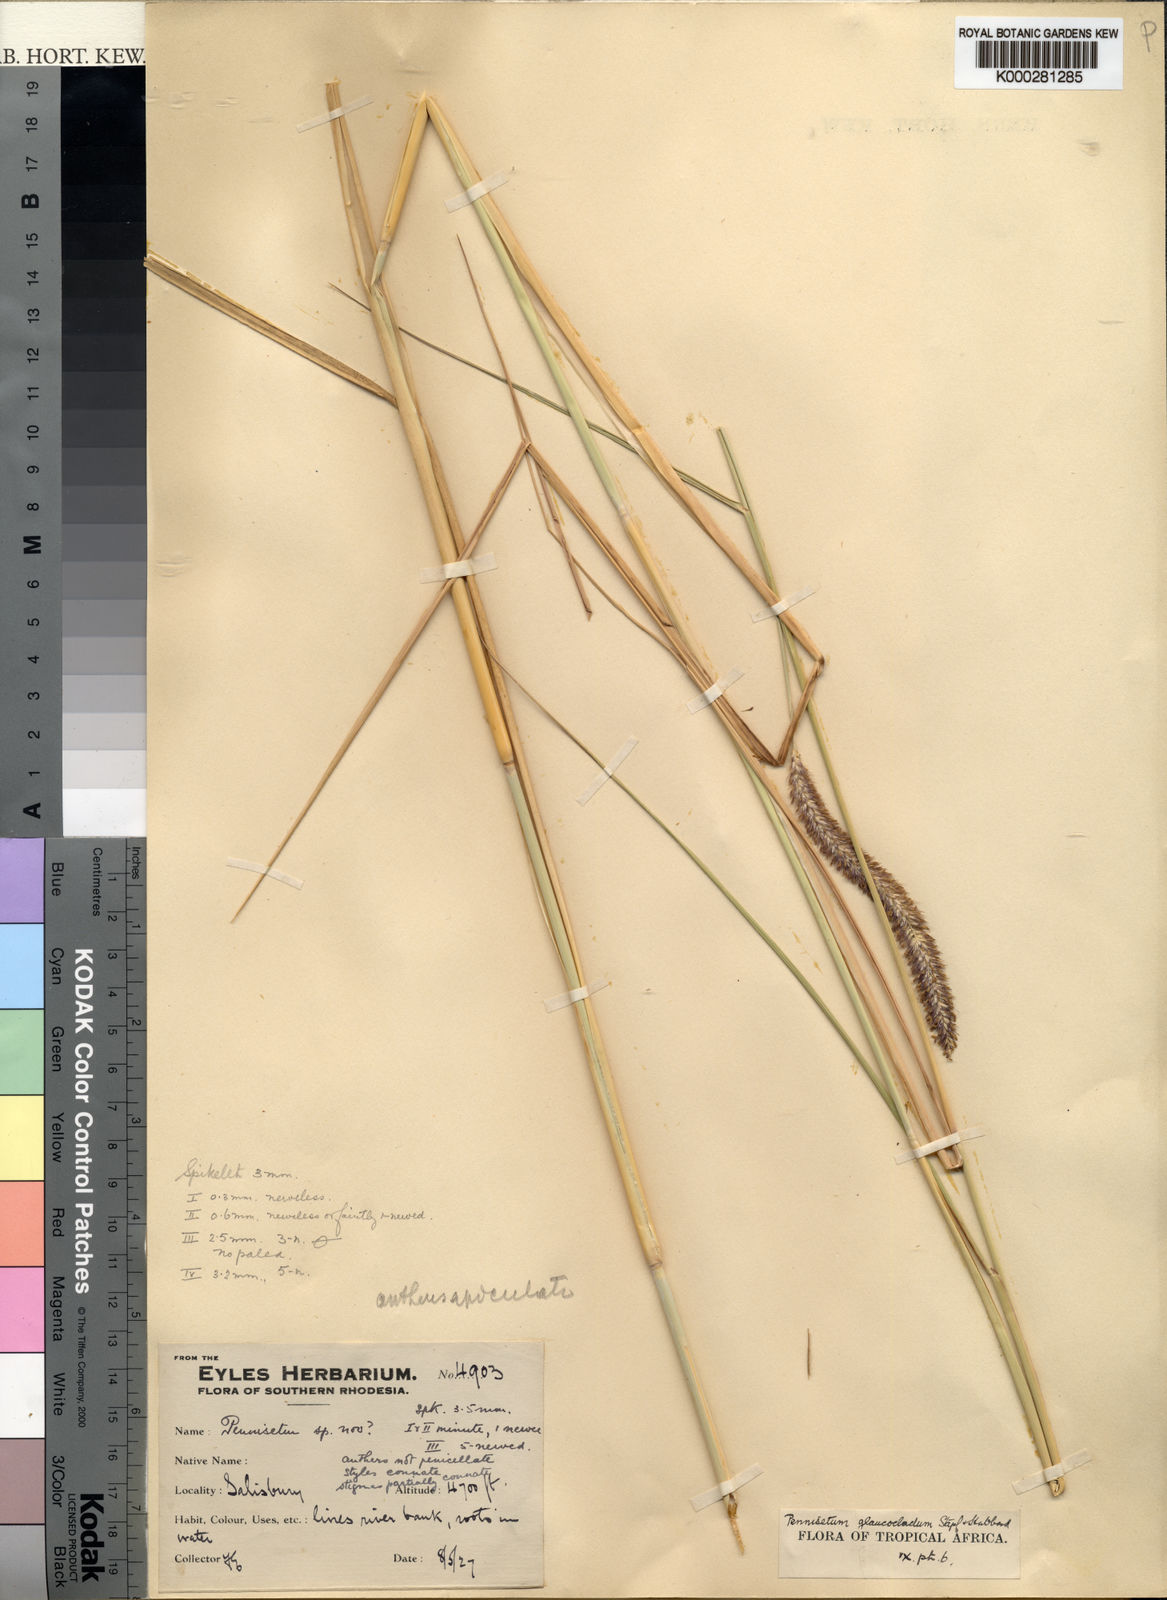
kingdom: Plantae
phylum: Tracheophyta
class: Liliopsida
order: Poales
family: Poaceae
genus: Cenchrus
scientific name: Cenchrus caudatus
